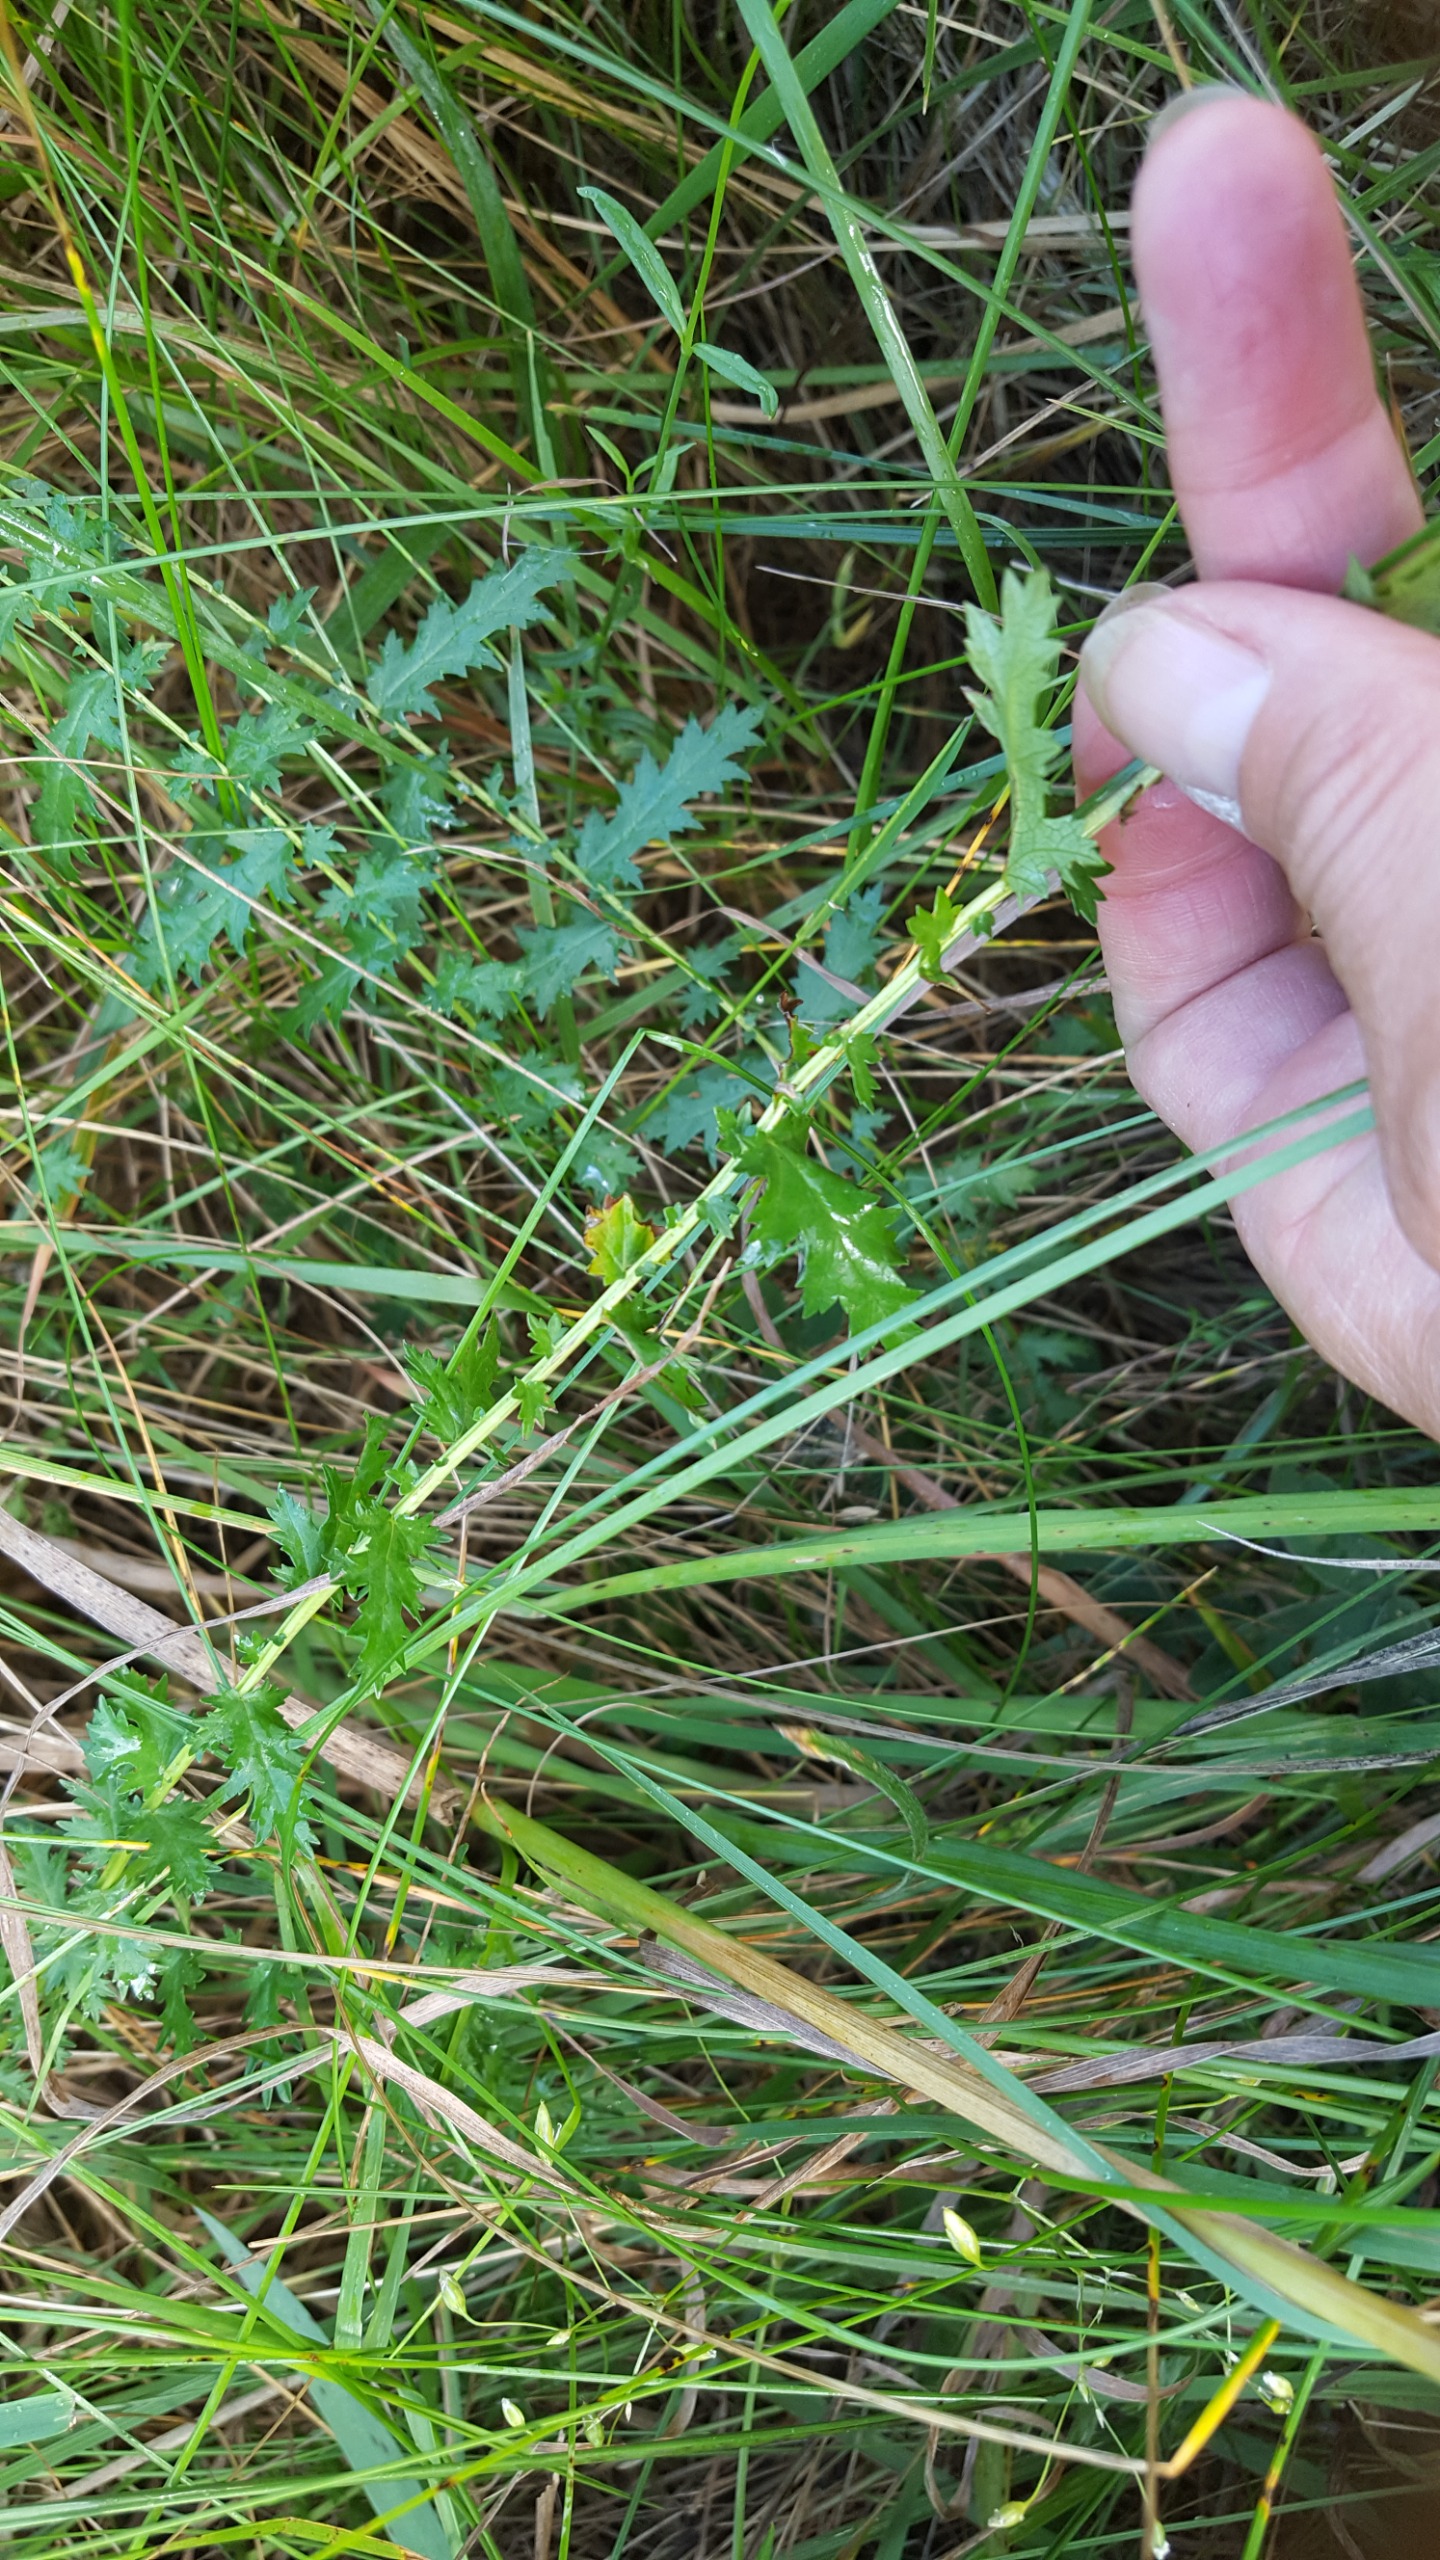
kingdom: Plantae
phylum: Tracheophyta
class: Magnoliopsida
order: Rosales
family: Rosaceae
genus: Filipendula
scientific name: Filipendula vulgaris
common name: Knoldet mjødurt
